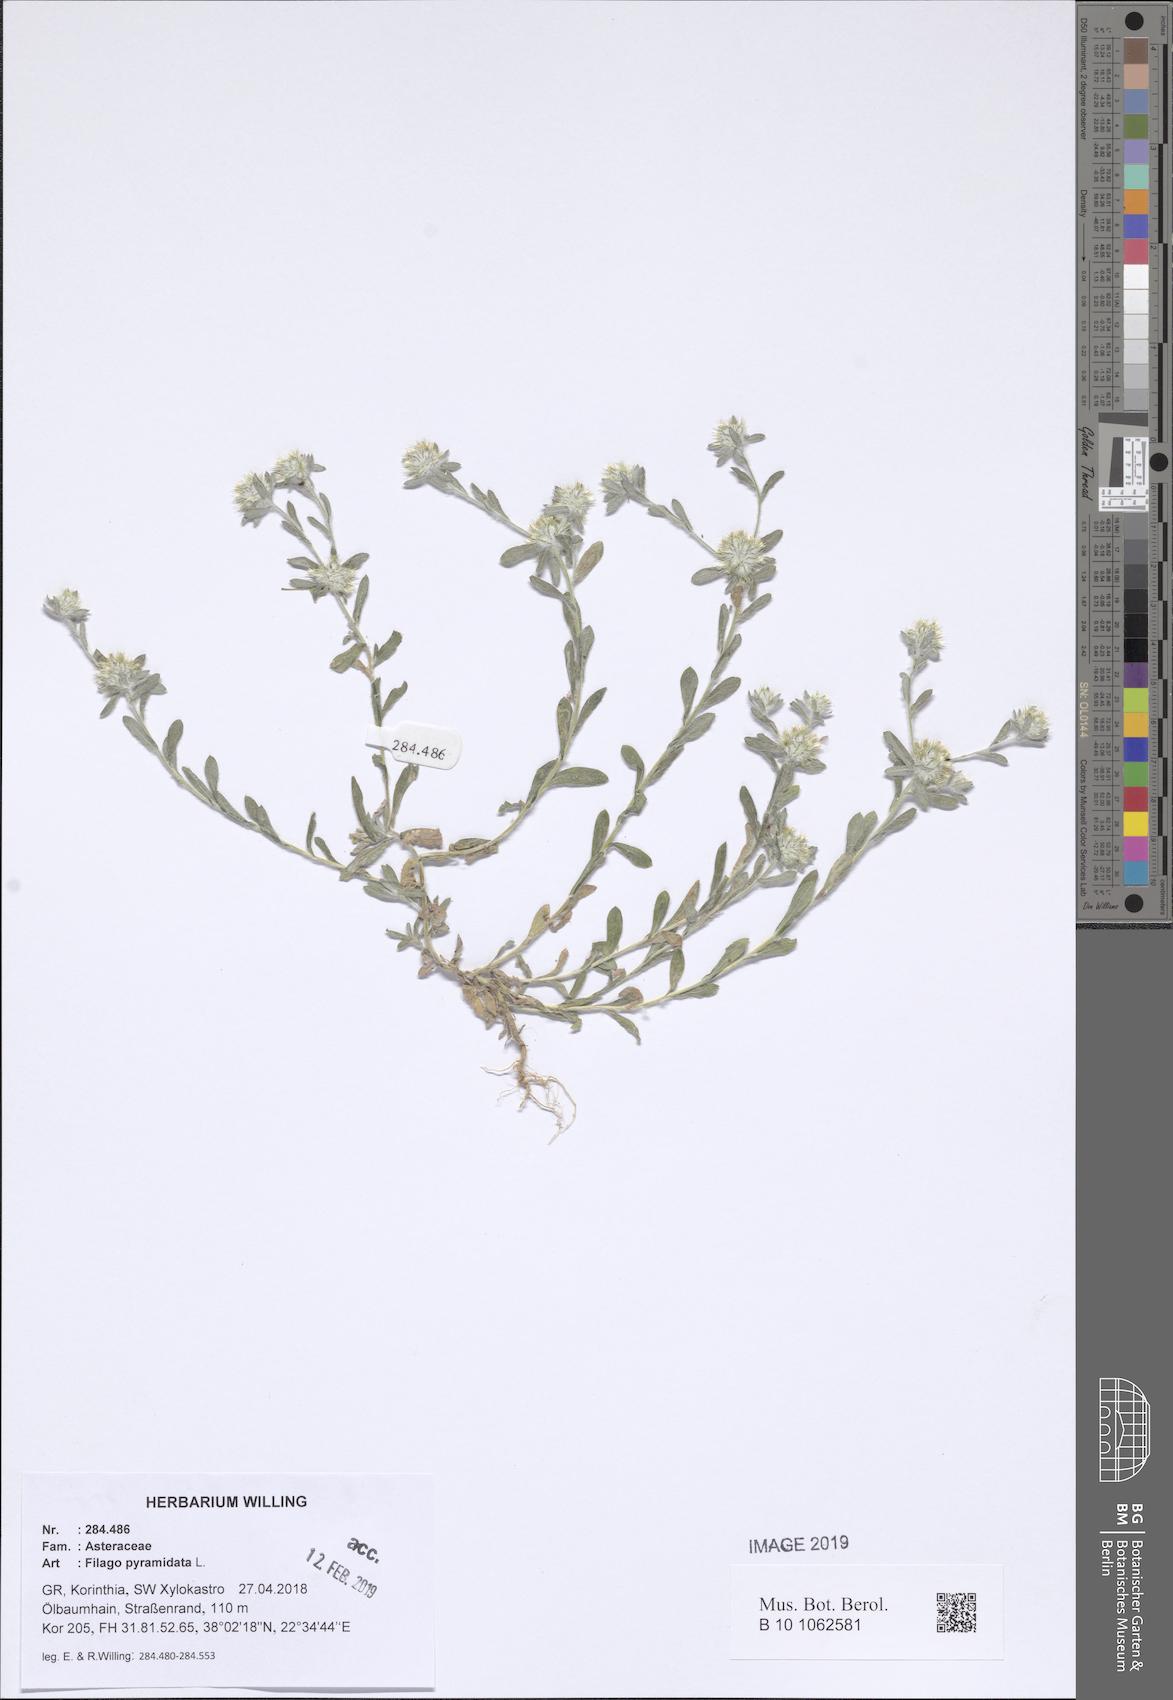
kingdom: Plantae
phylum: Tracheophyta
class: Magnoliopsida
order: Asterales
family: Asteraceae
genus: Filago
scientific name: Filago pyramidata
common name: Broad-leaved cudweed
